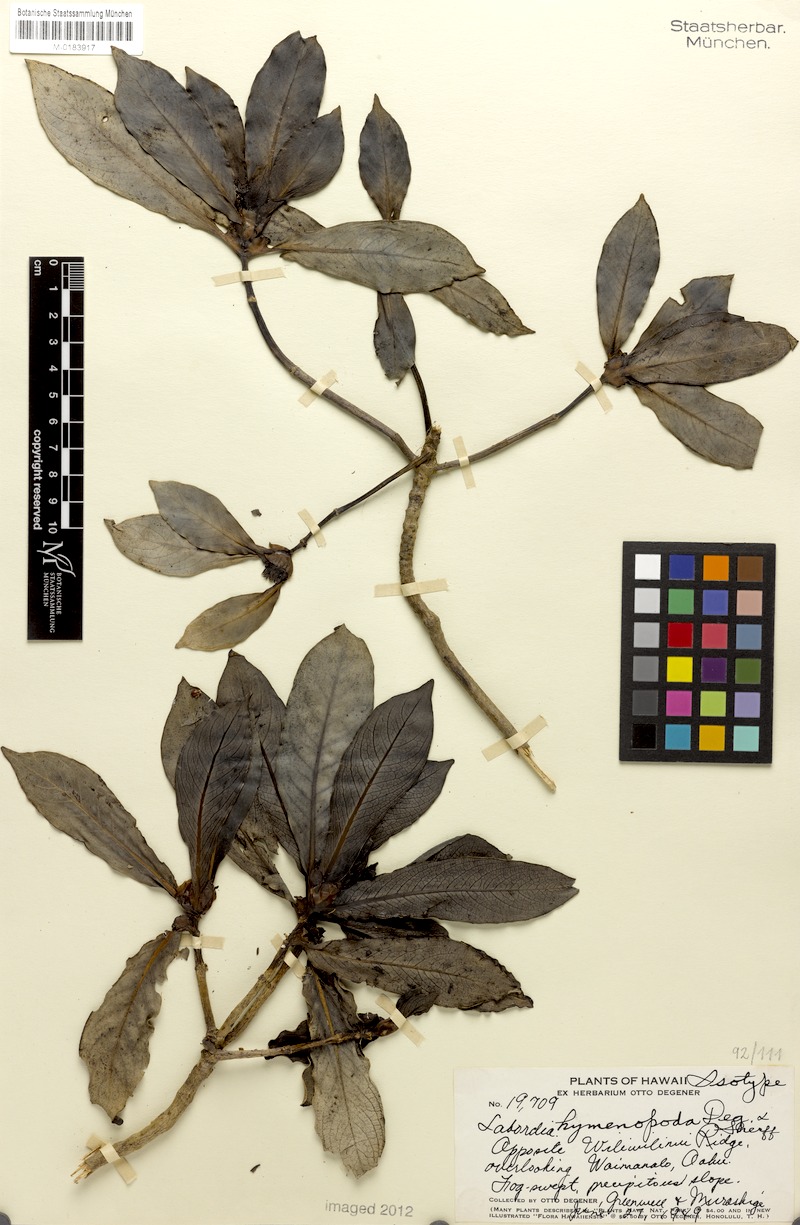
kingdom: Plantae
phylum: Tracheophyta
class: Magnoliopsida
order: Gentianales
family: Loganiaceae
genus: Geniostoma
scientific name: Geniostoma hymenopodum
